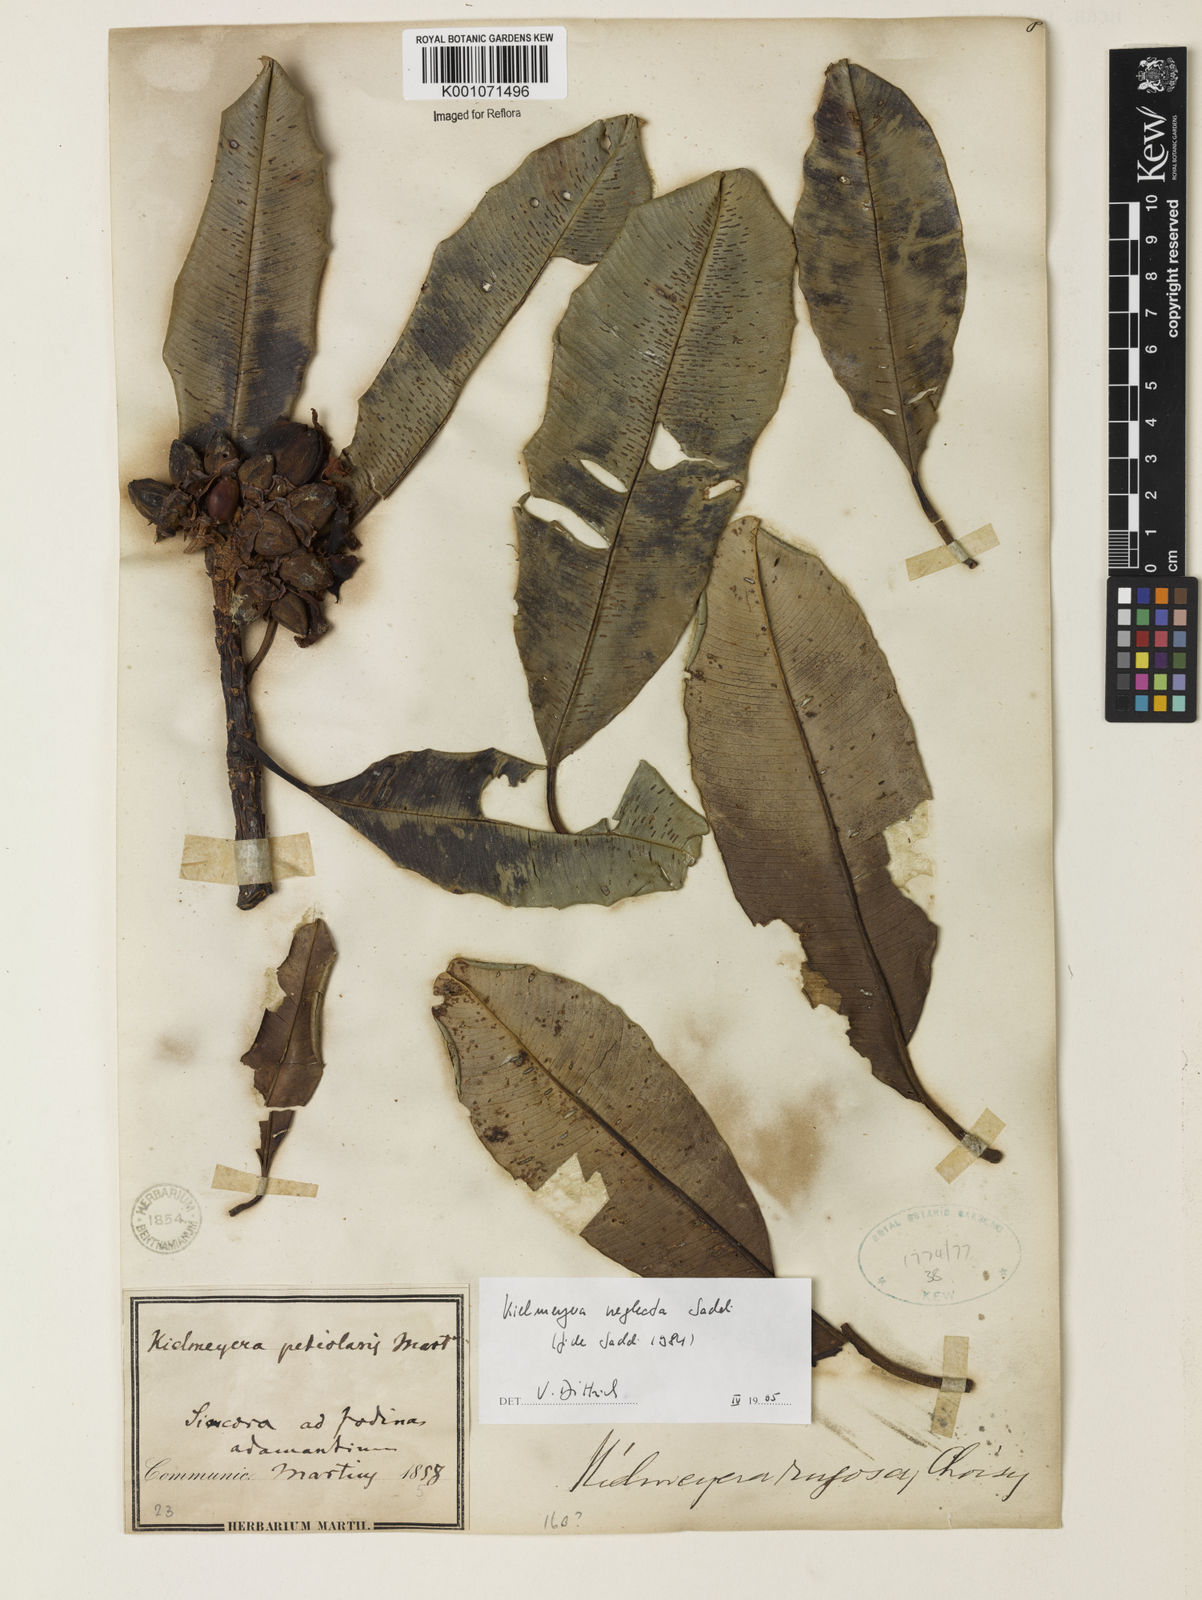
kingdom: Plantae
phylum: Tracheophyta
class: Magnoliopsida
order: Malpighiales
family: Calophyllaceae
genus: Kielmeyera
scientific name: Kielmeyera neglecta
